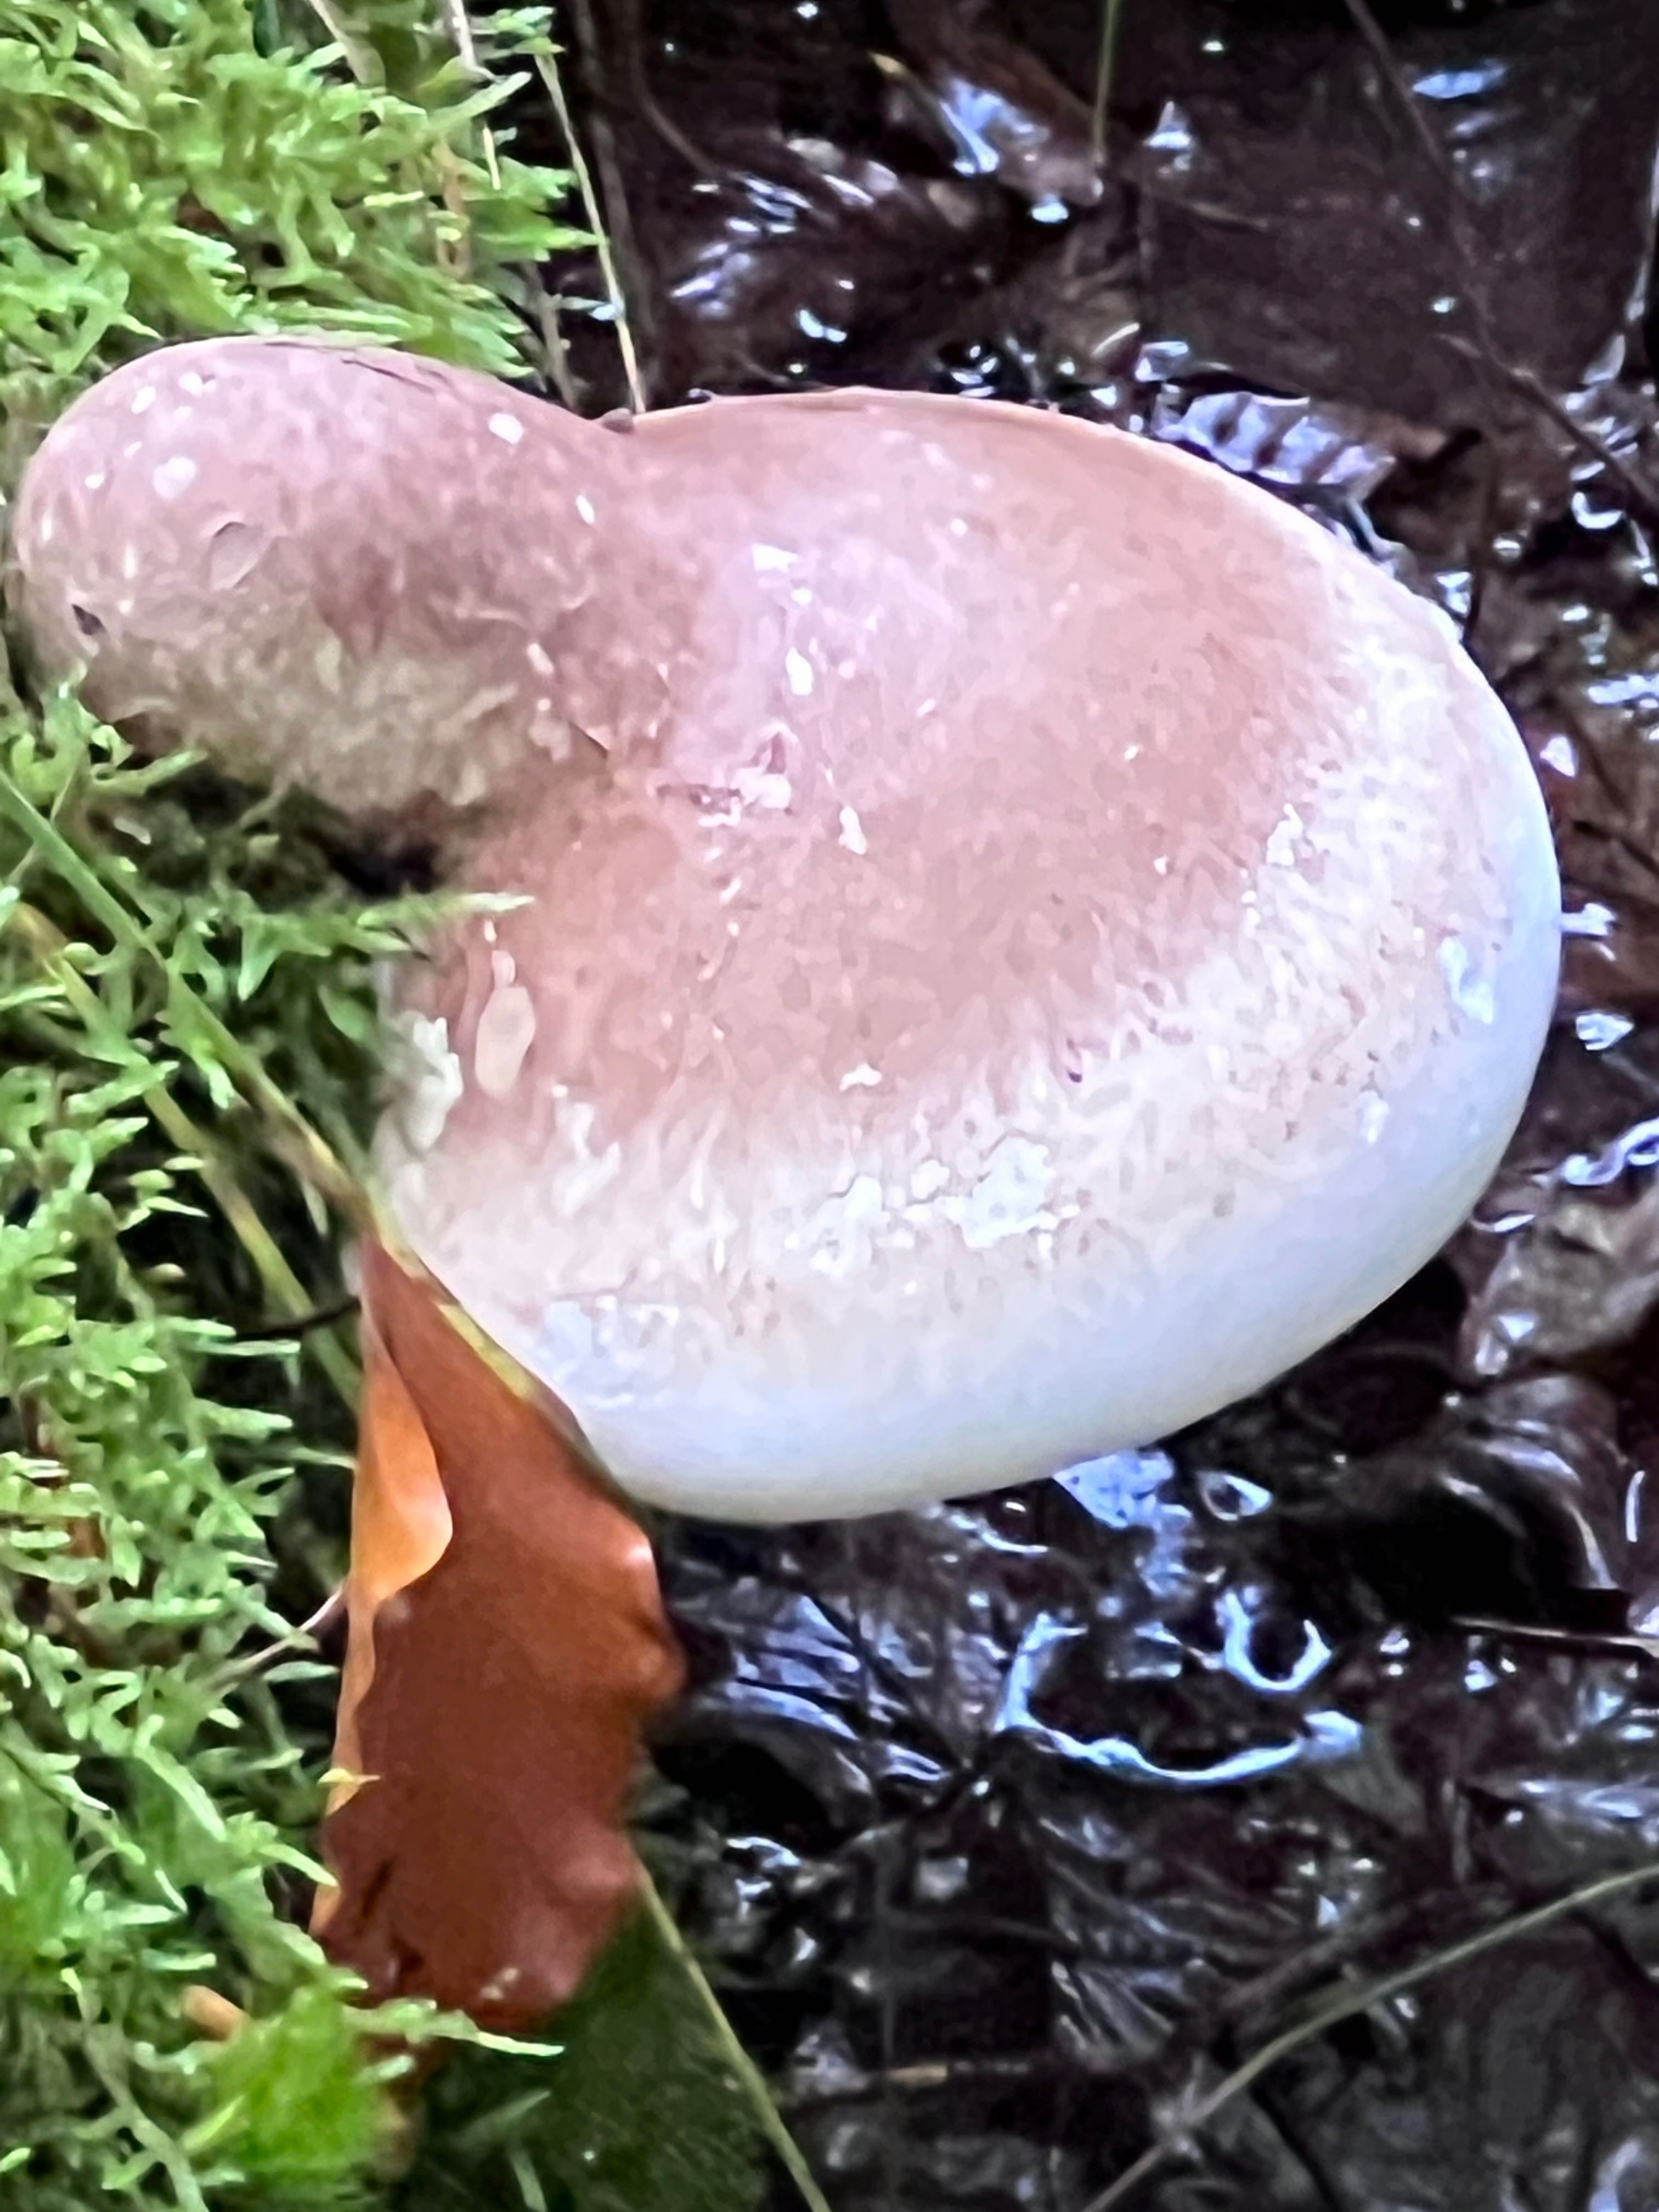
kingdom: Fungi
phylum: Basidiomycota
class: Agaricomycetes
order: Polyporales
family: Fomitopsidaceae
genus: Fomitopsis
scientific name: Fomitopsis betulina
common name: birkeporesvamp
